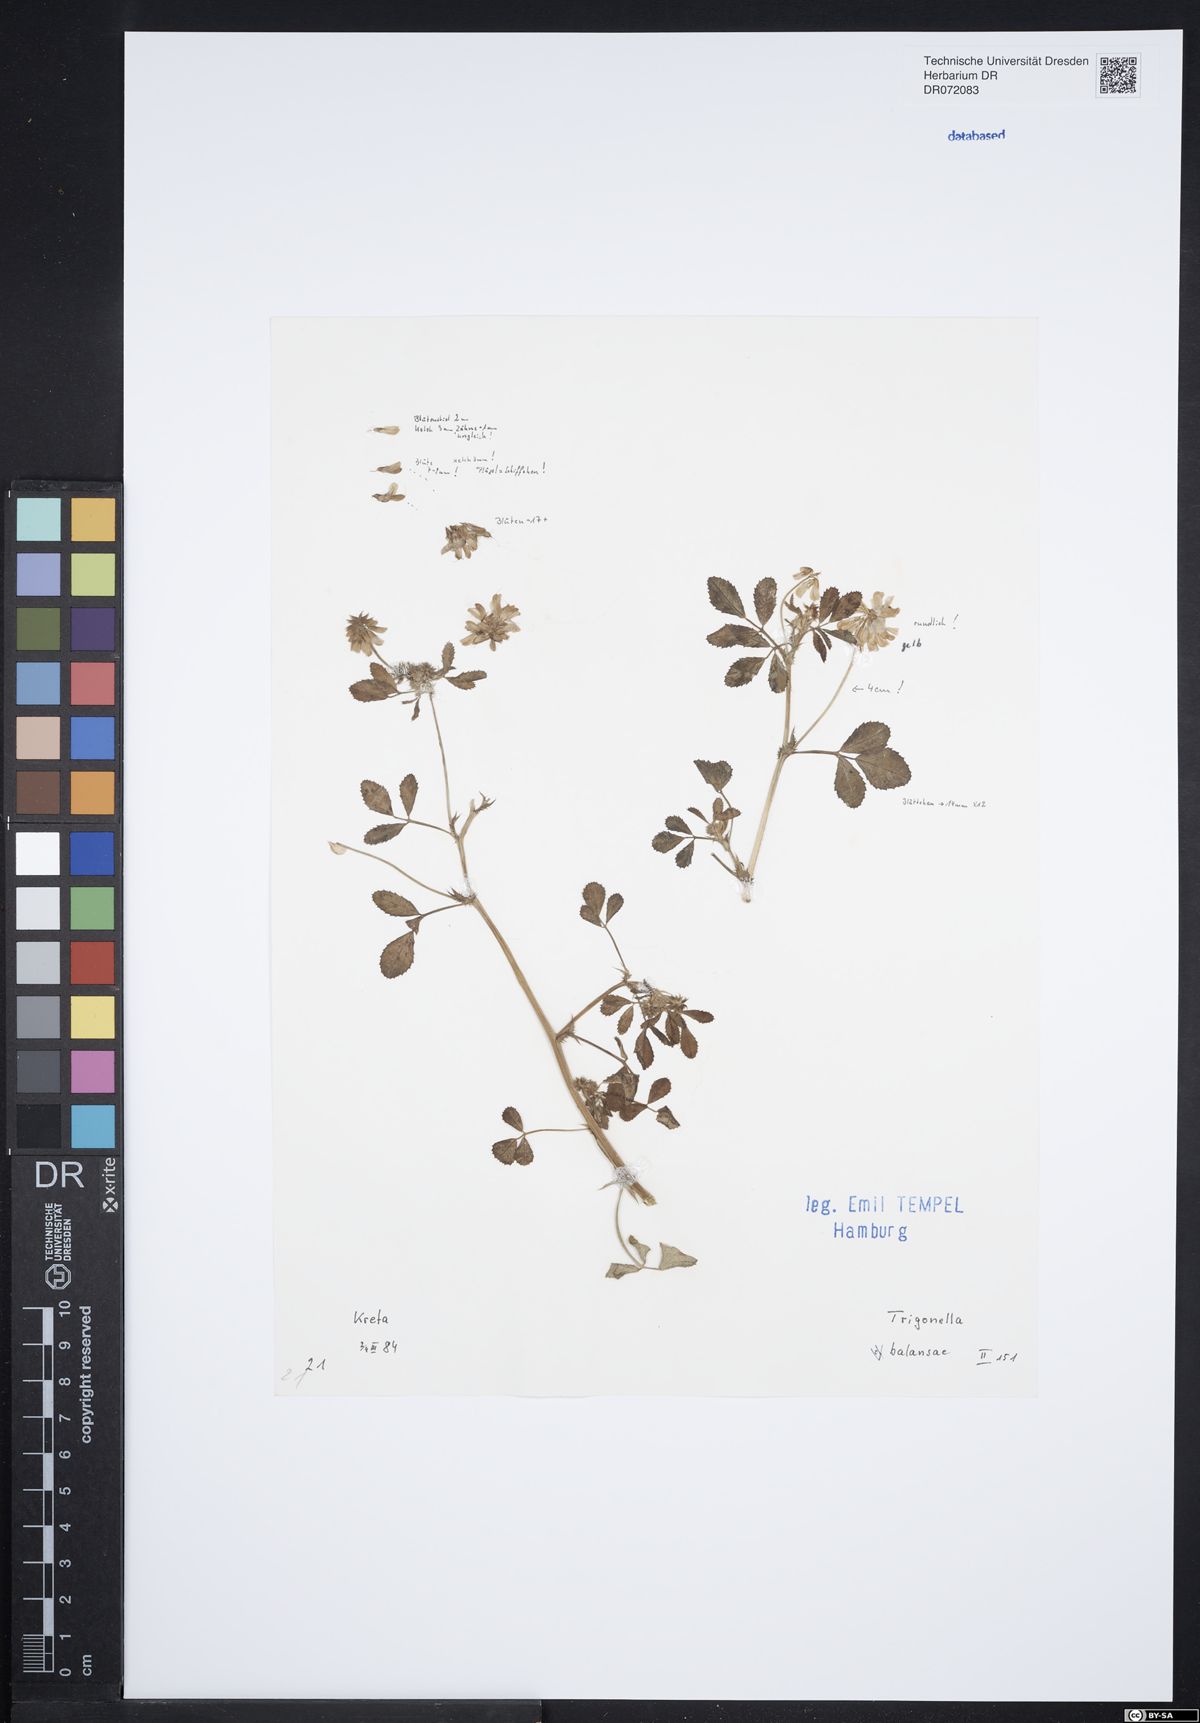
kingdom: Plantae
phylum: Tracheophyta
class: Magnoliopsida
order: Fabales
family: Fabaceae
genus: Trigonella
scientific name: Trigonella balansae
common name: Sickle-fruited fenugreek
